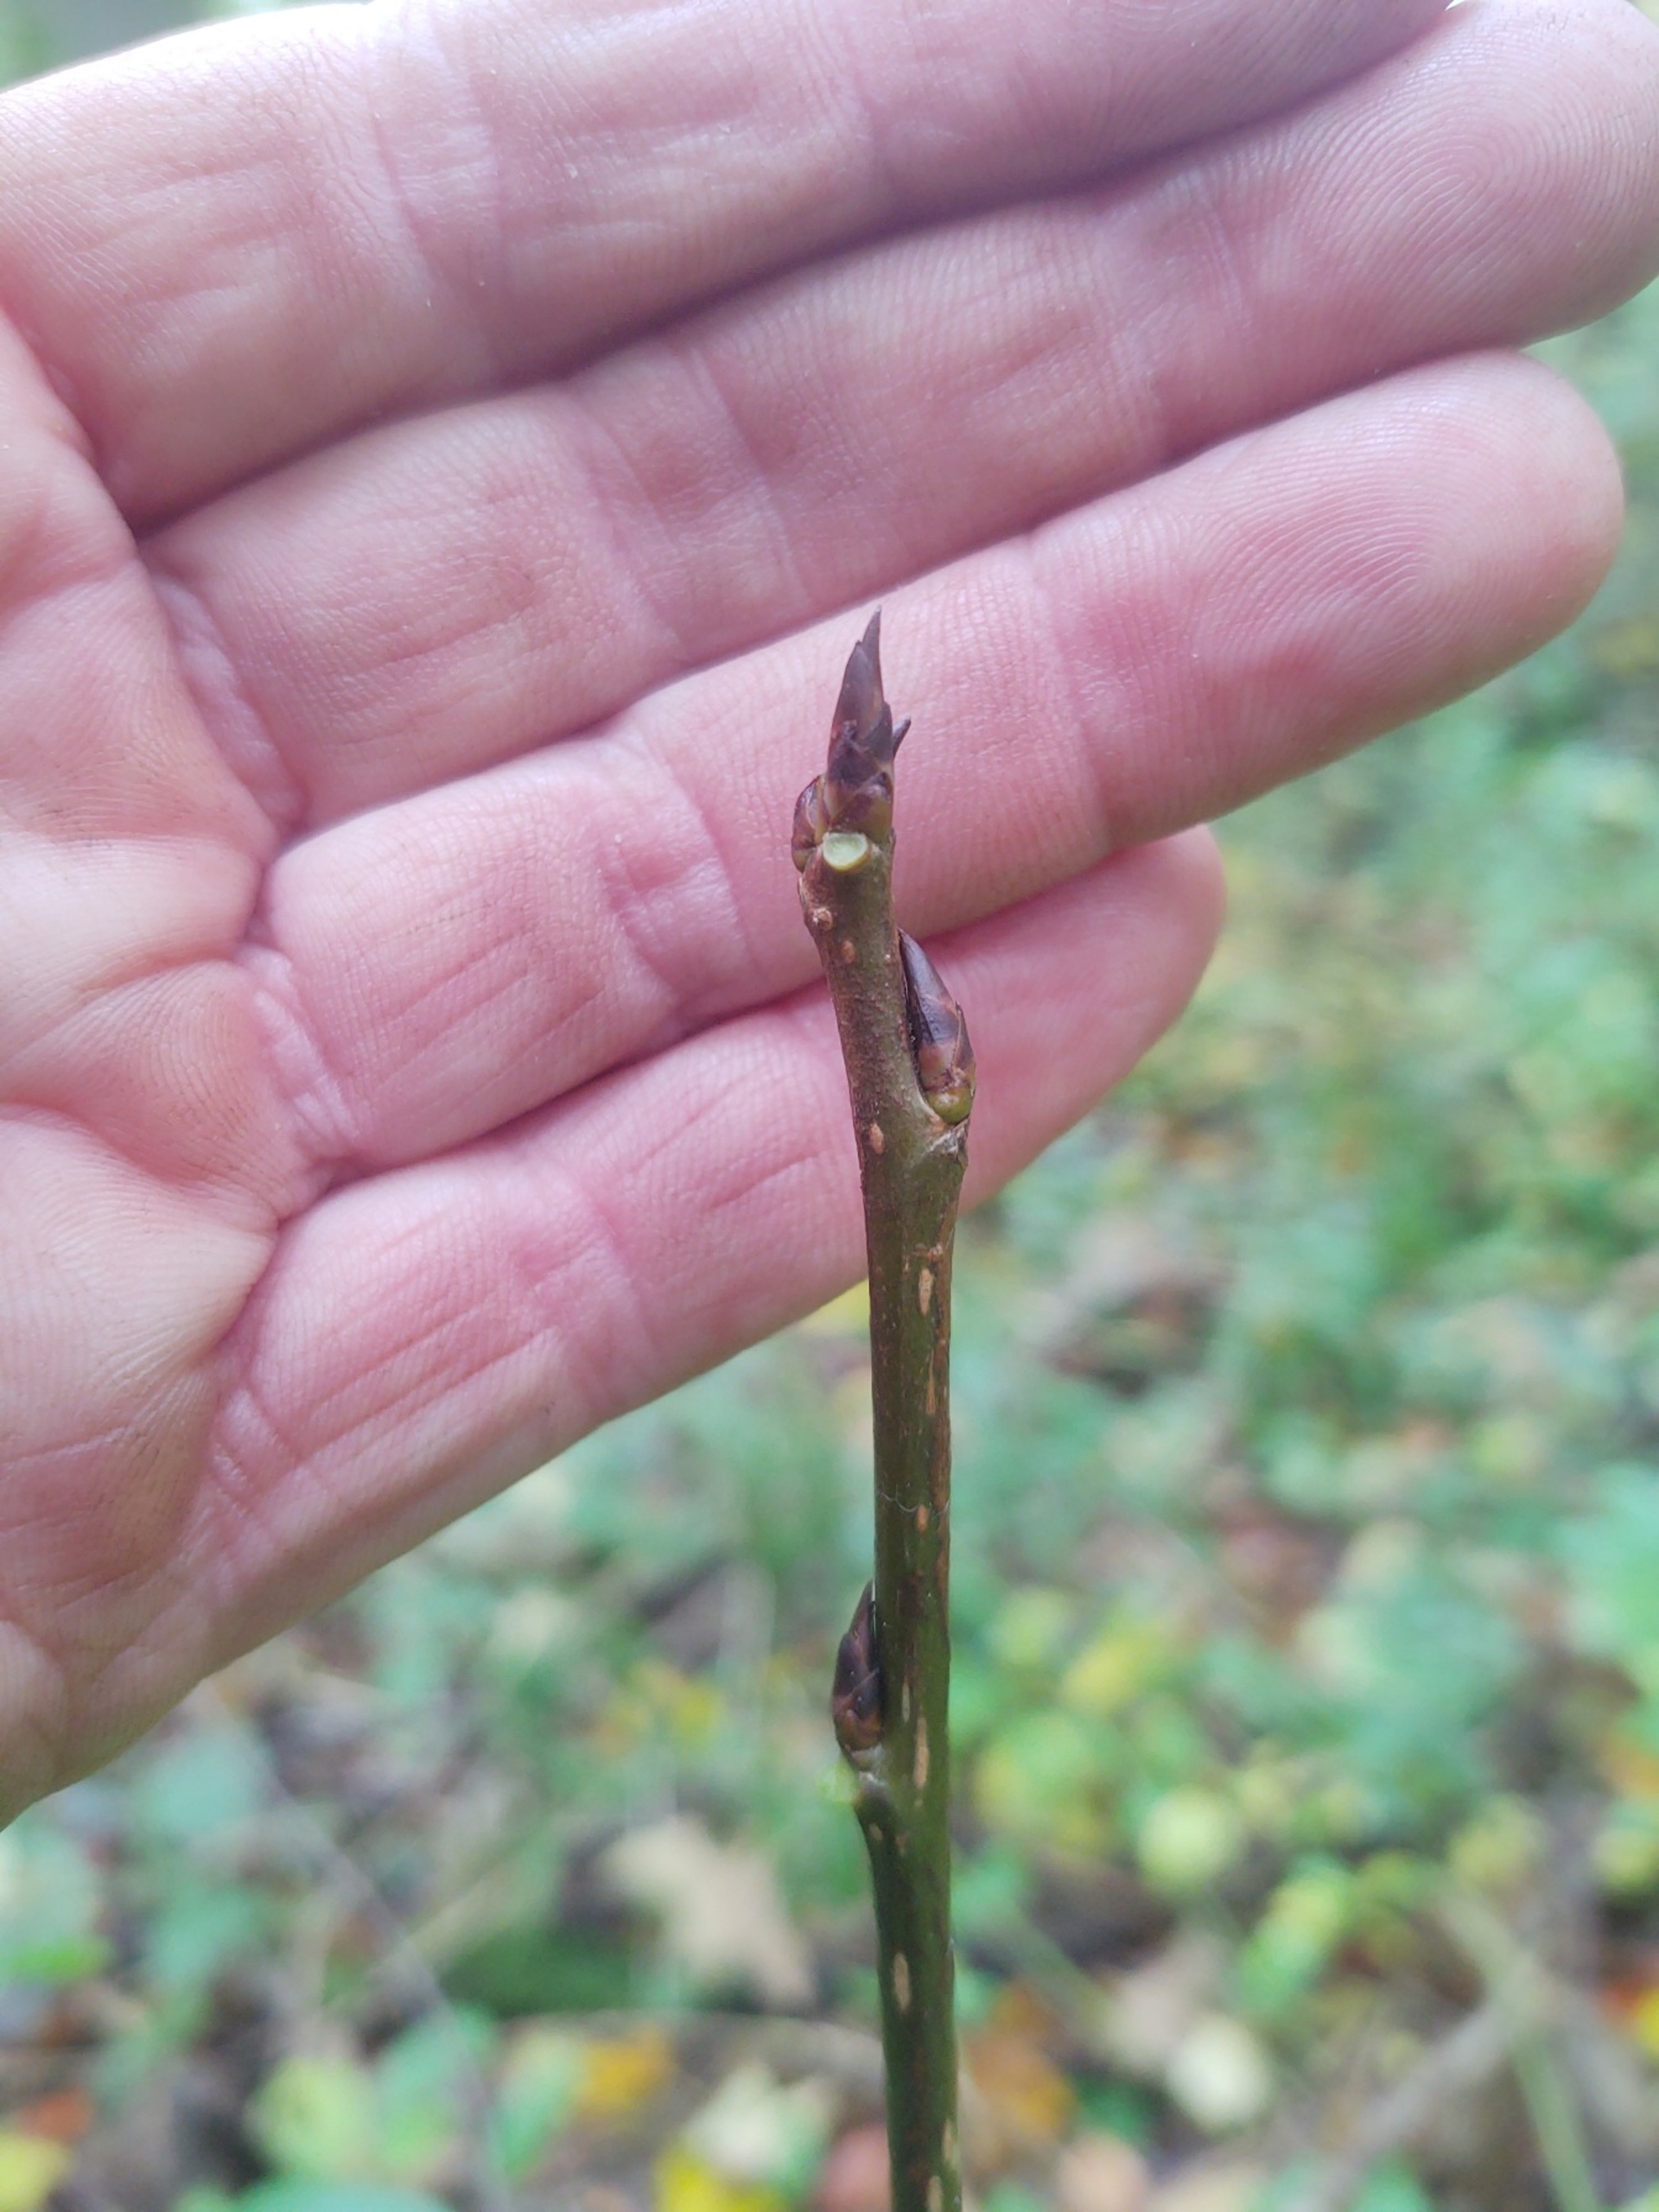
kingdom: Plantae
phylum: Tracheophyta
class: Magnoliopsida
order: Rosales
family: Rosaceae
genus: Prunus
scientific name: Prunus padus
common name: Almindelig hæg
